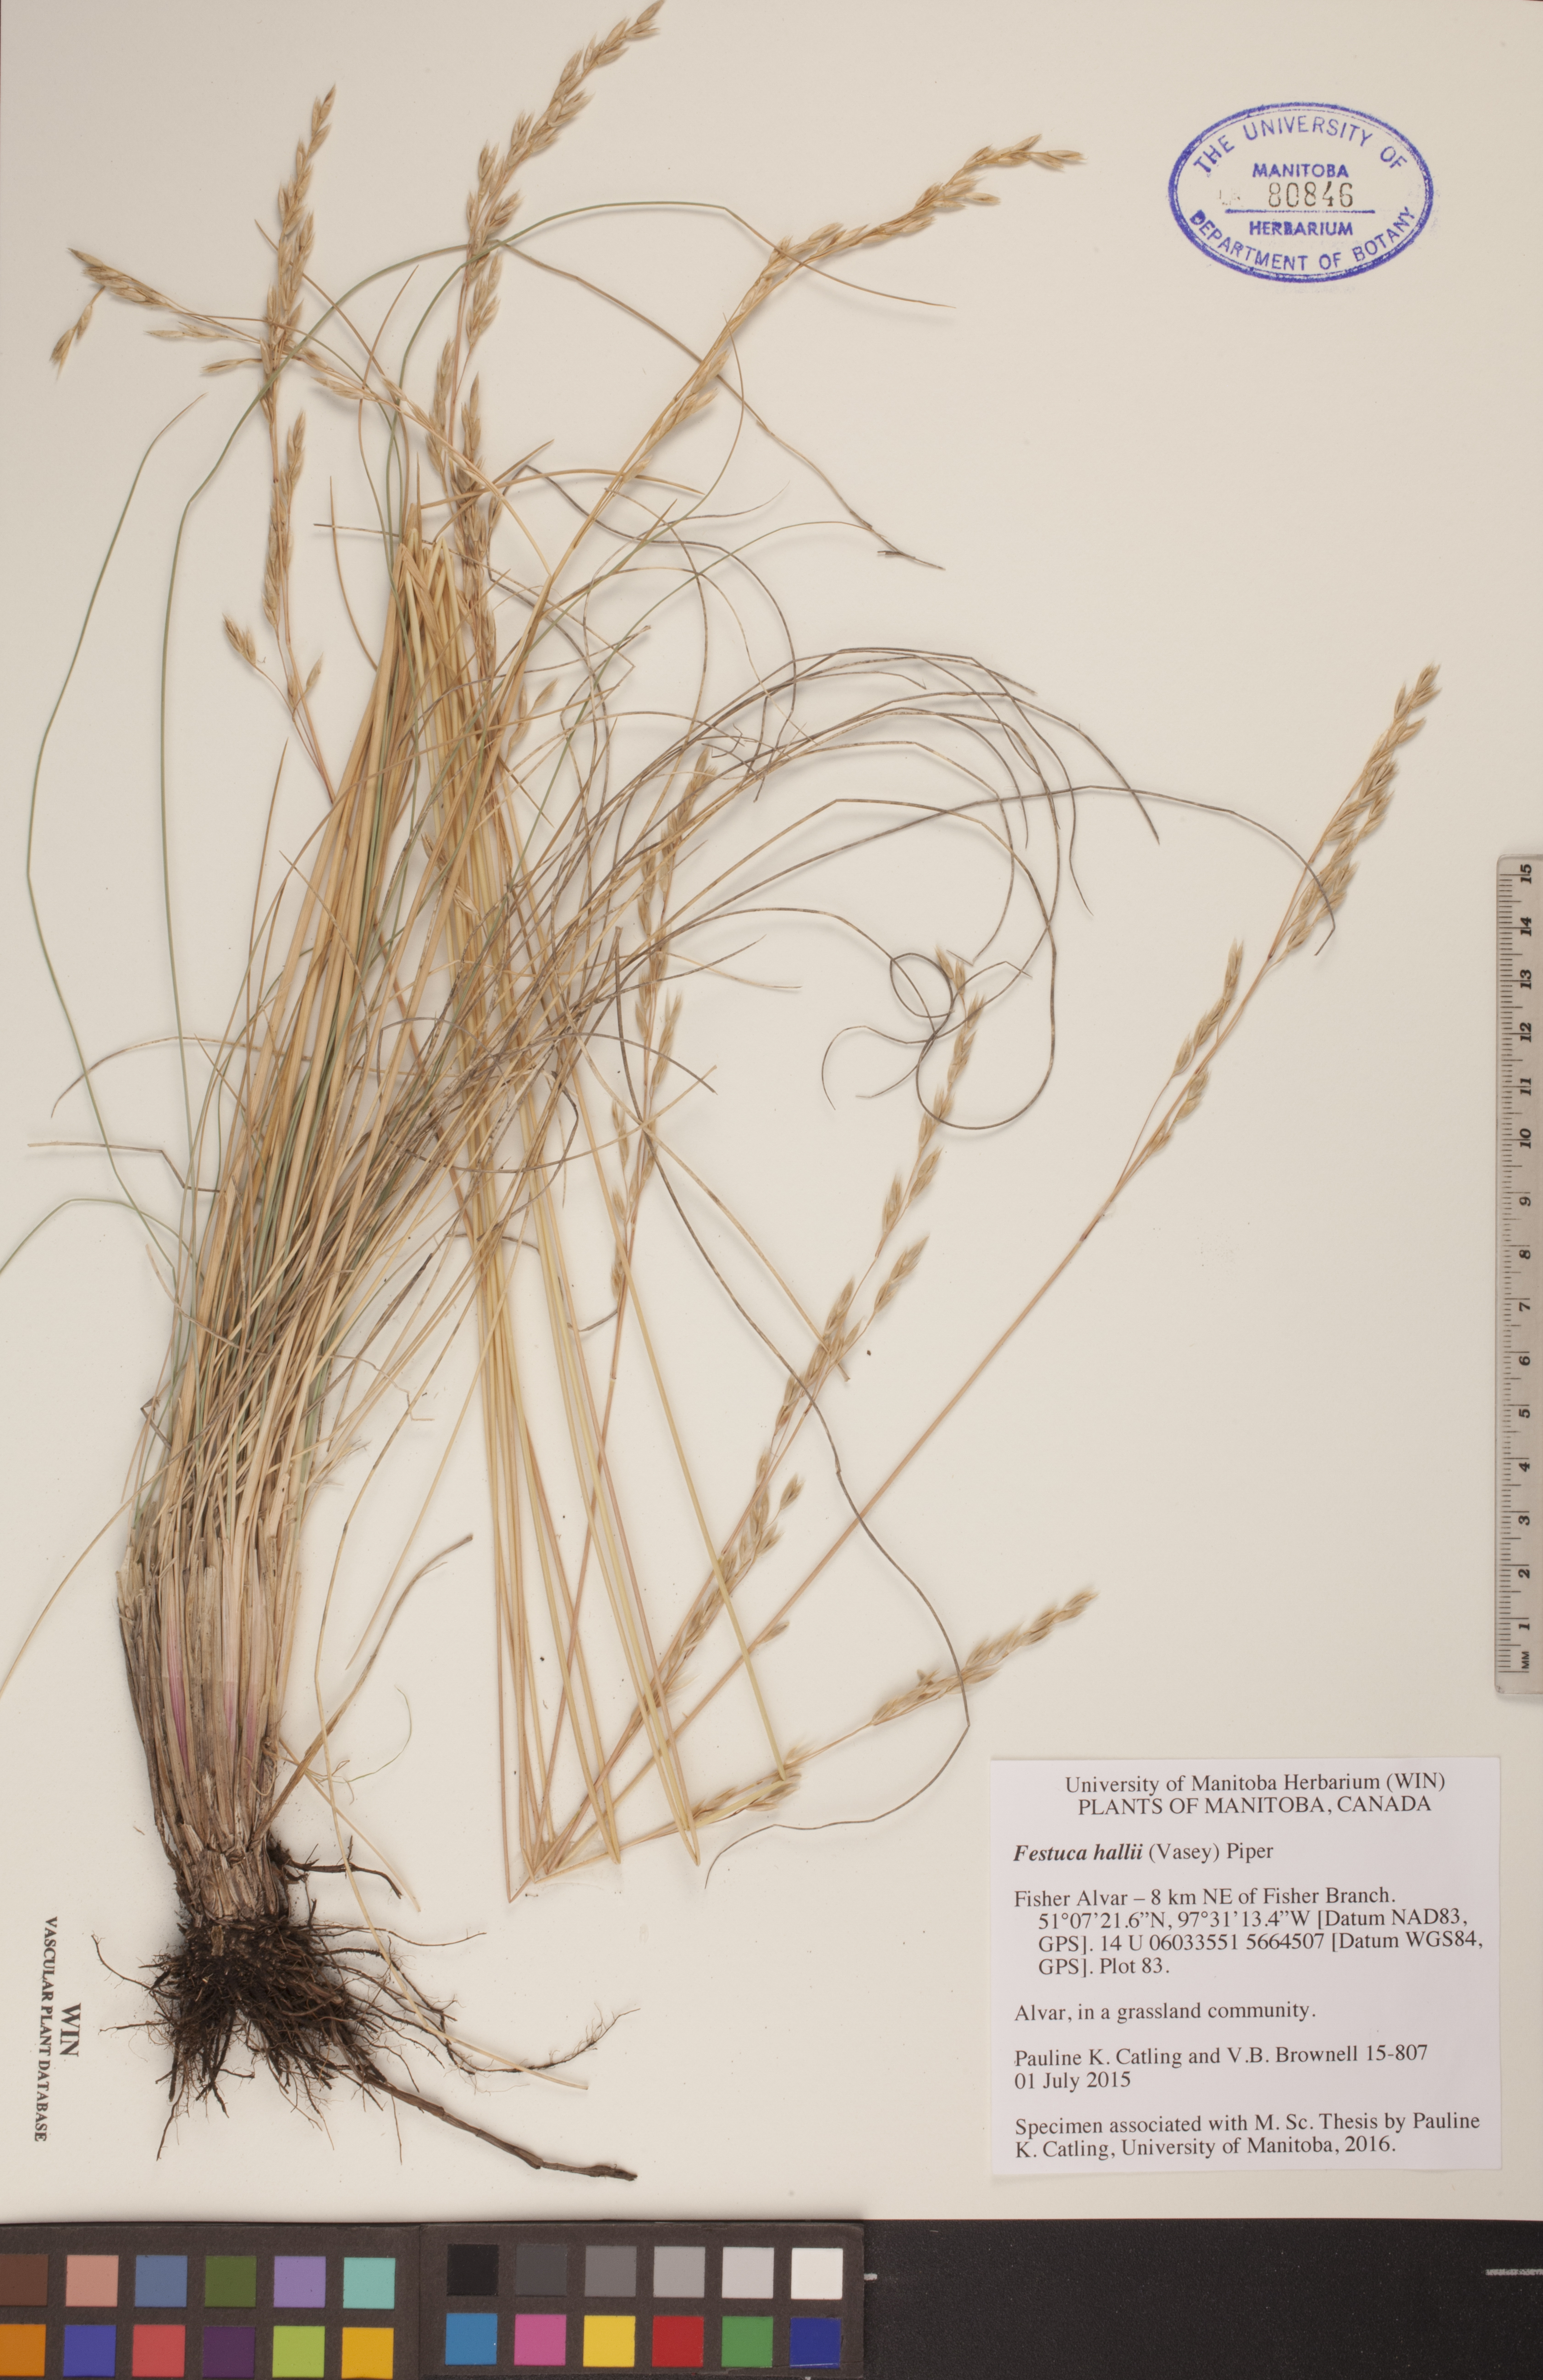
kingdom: Plantae
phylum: Tracheophyta
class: Liliopsida
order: Poales
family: Poaceae
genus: Festuca
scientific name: Festuca hallii
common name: Hall's fescue
